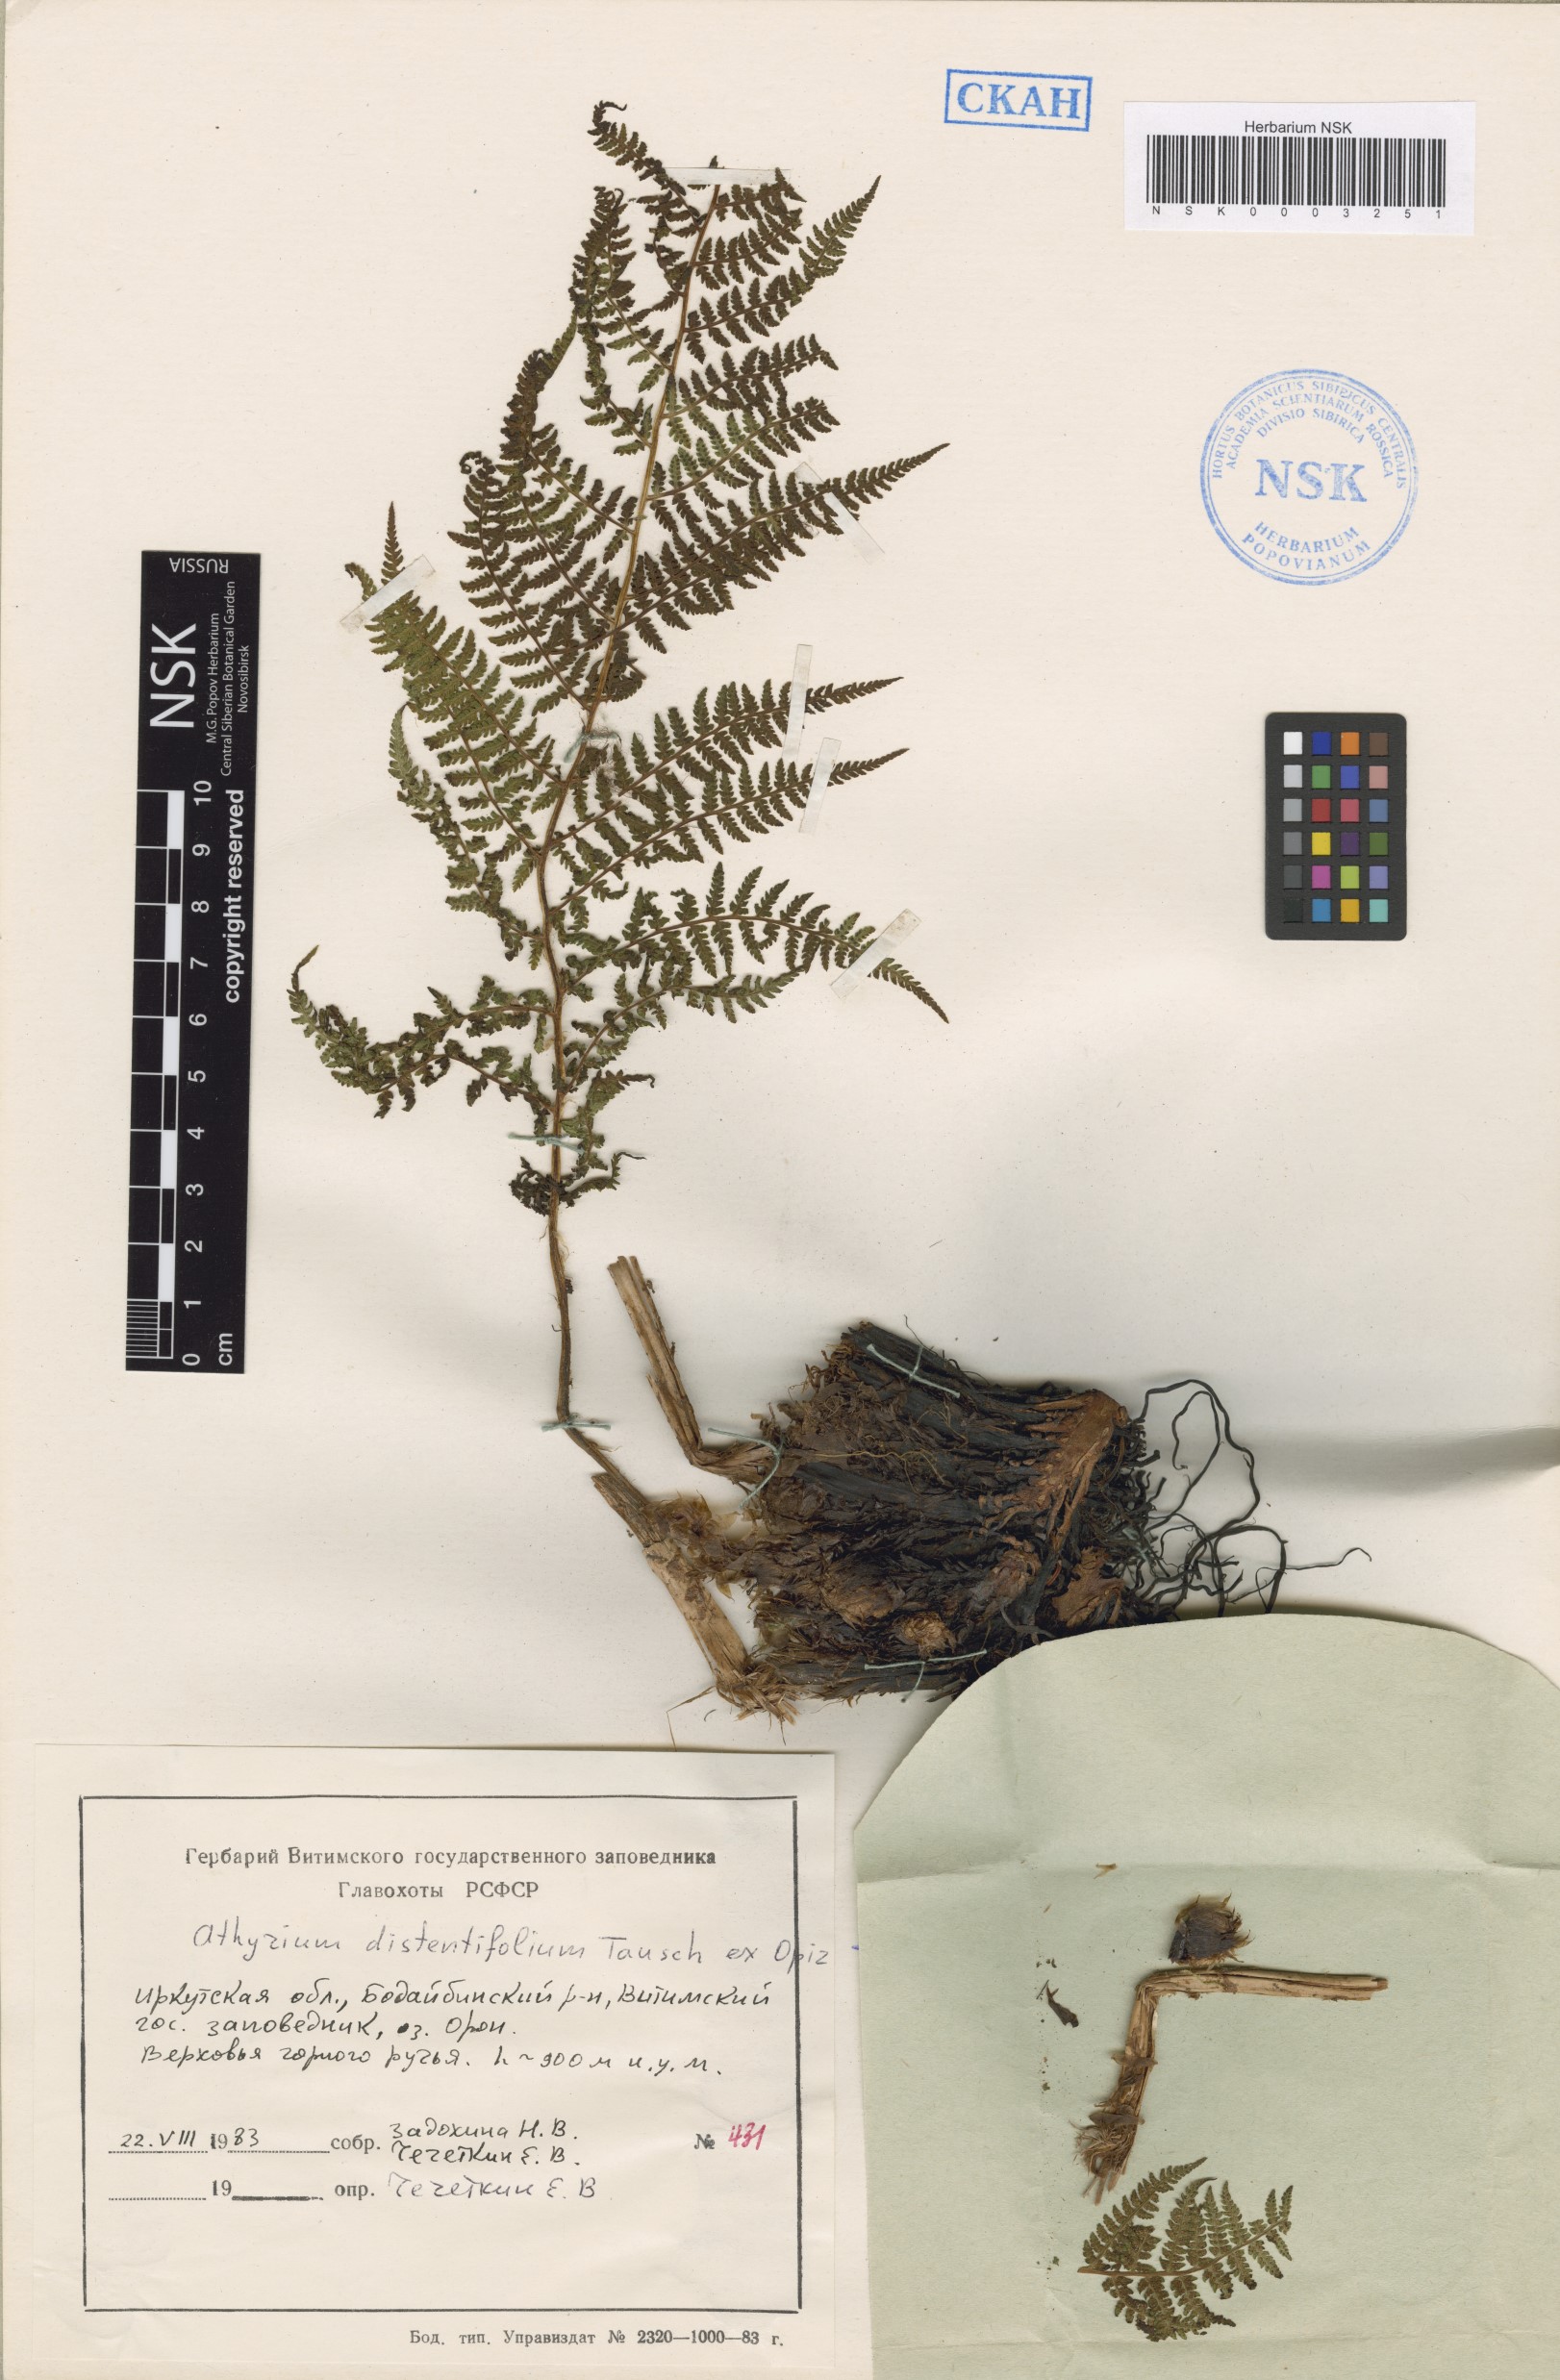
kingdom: Plantae
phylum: Tracheophyta
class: Polypodiopsida
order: Polypodiales
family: Athyriaceae
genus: Pseudathyrium
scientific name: Pseudathyrium alpestre
